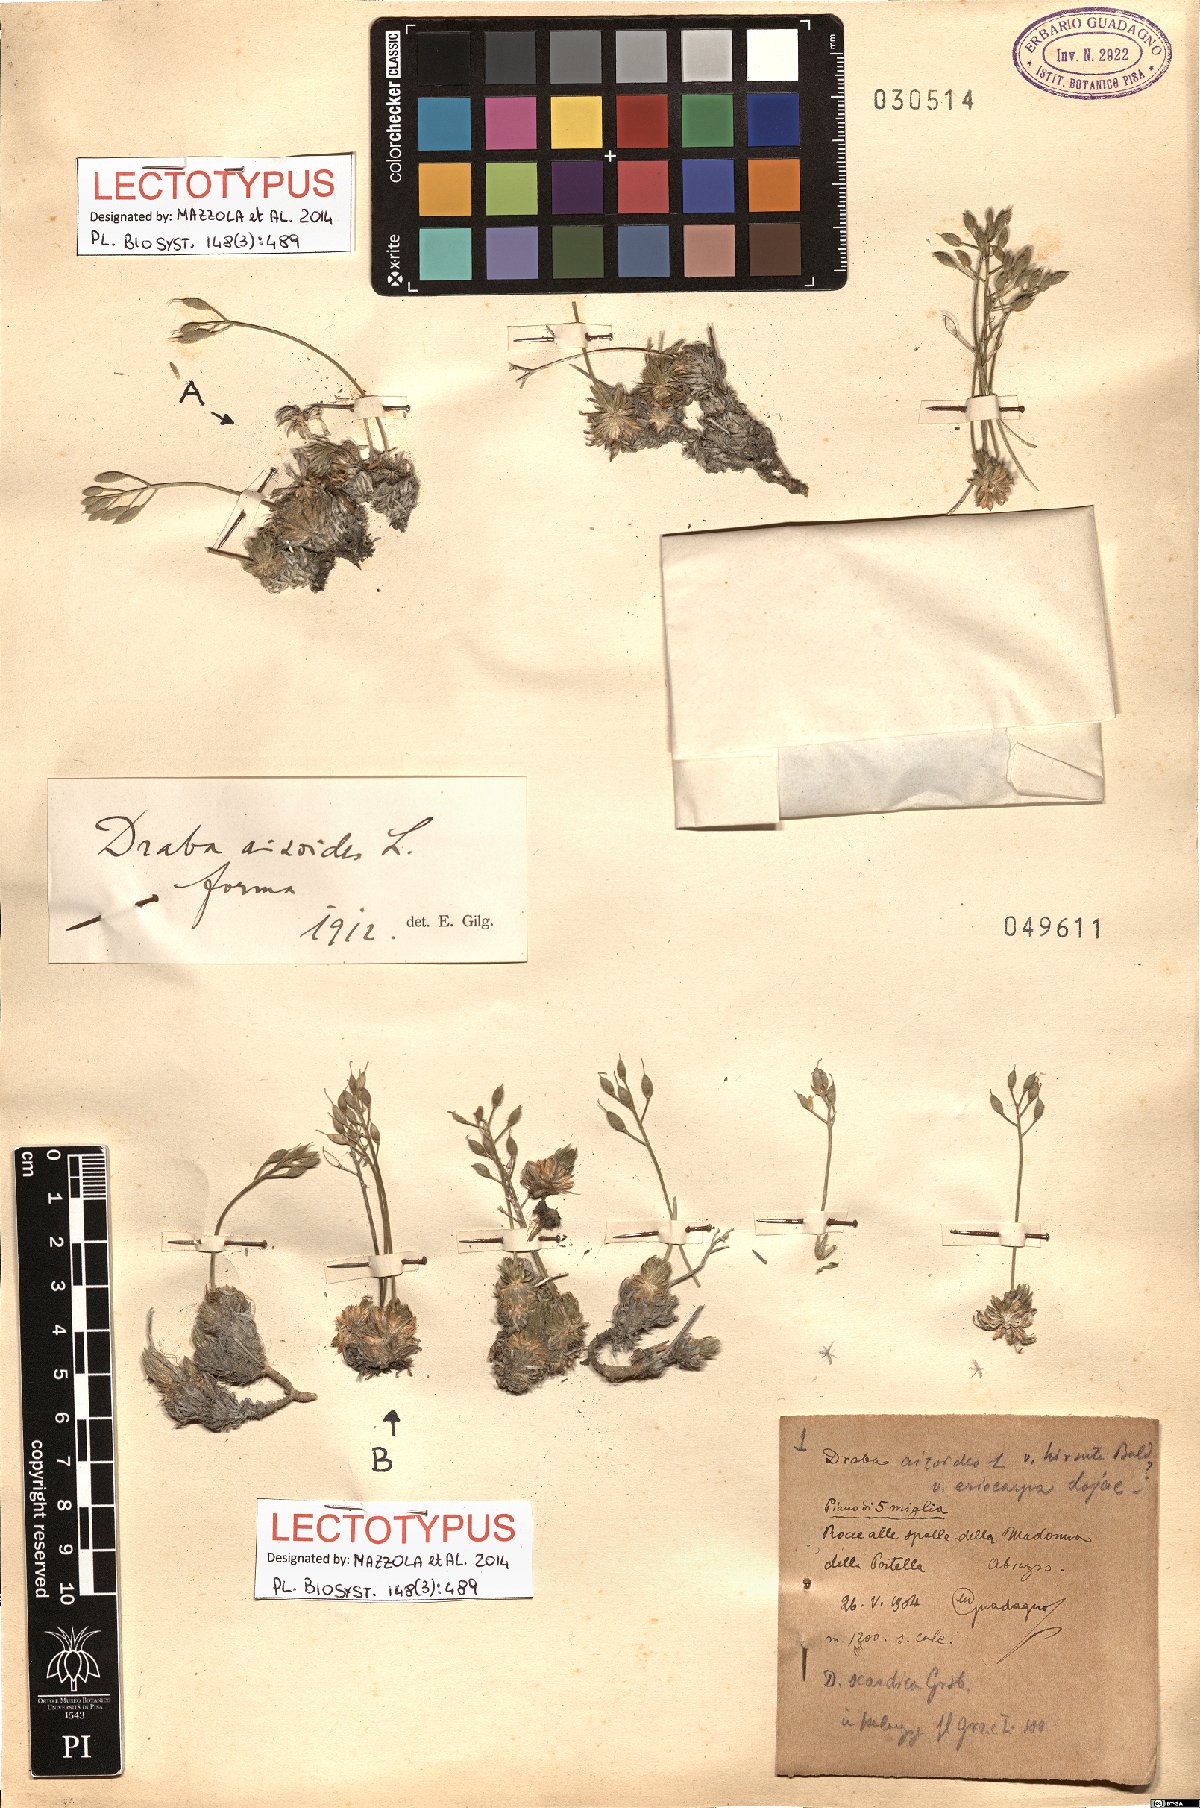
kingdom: Plantae
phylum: Tracheophyta
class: Magnoliopsida
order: Brassicales
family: Brassicaceae
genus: Draba
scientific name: Draba aizoides
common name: Yellow whitlowgrass
